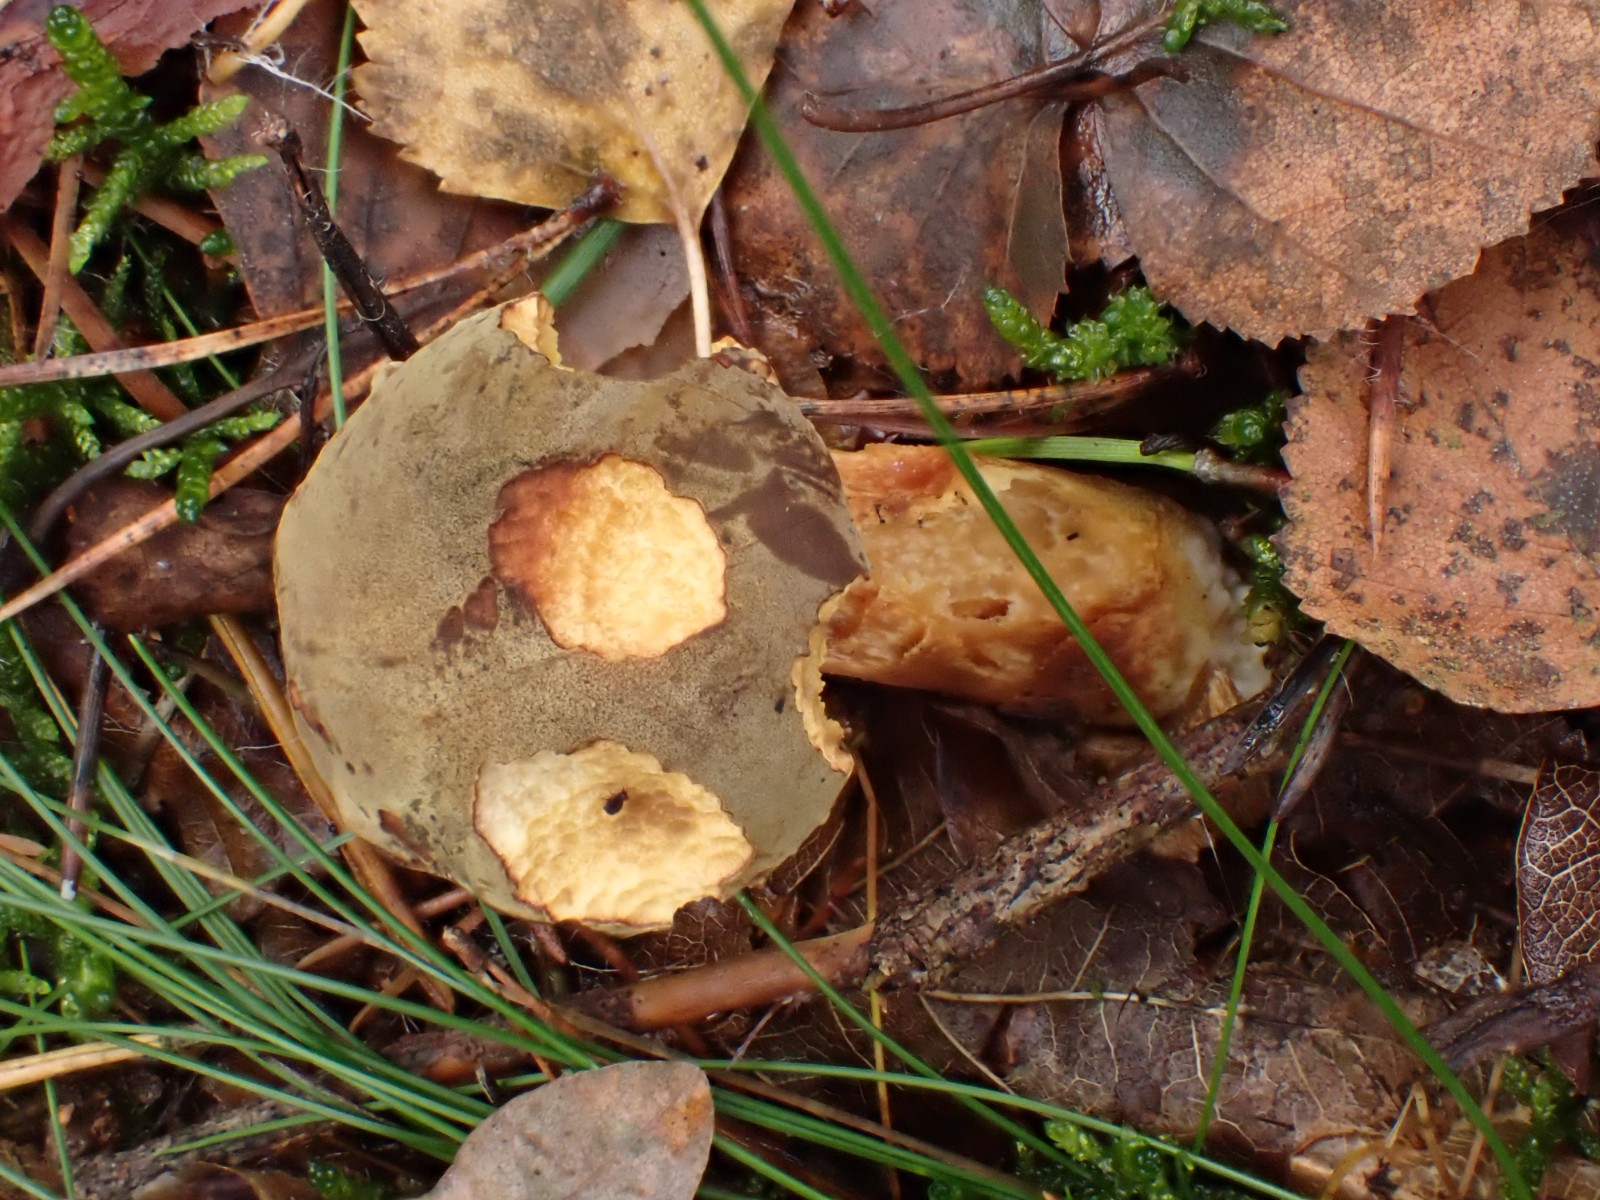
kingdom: Fungi
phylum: Basidiomycota
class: Agaricomycetes
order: Boletales
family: Boletaceae
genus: Xerocomus
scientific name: Xerocomus ferrugineus
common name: vaskeskinds-rørhat
